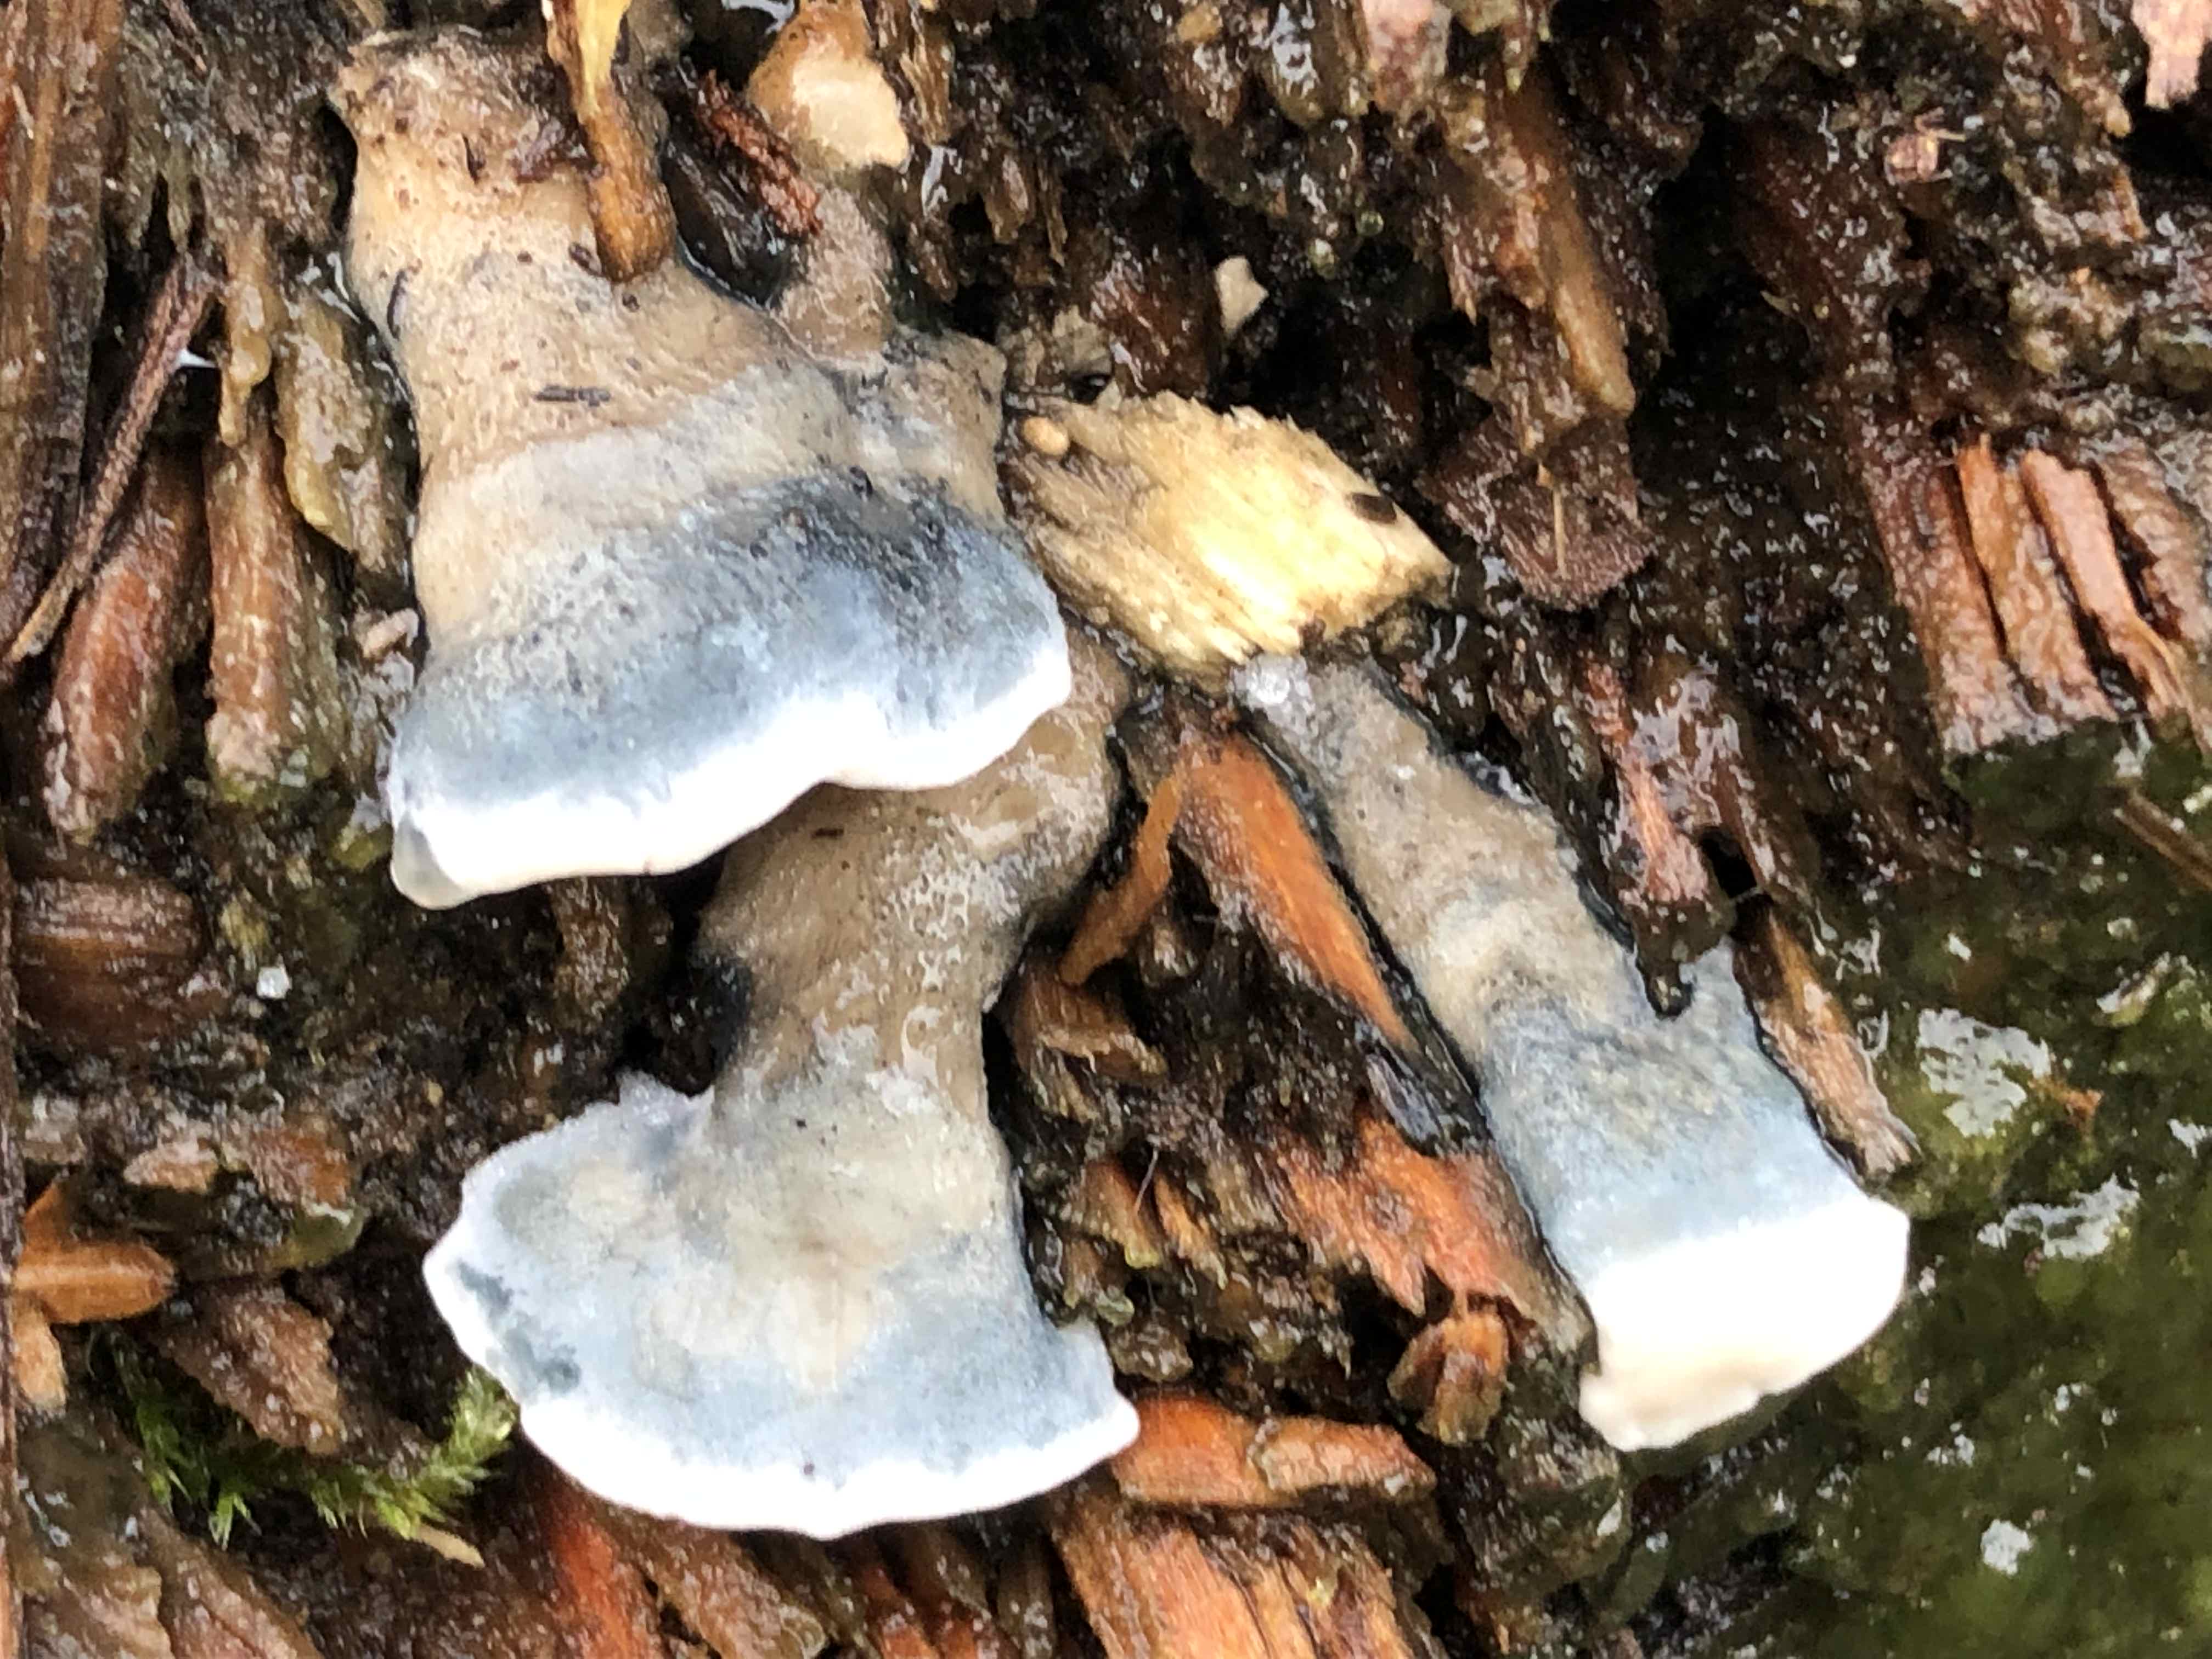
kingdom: Fungi
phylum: Basidiomycota
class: Agaricomycetes
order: Polyporales
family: Polyporaceae
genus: Cyanosporus
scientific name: Cyanosporus caesius
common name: blålig kødporesvamp
